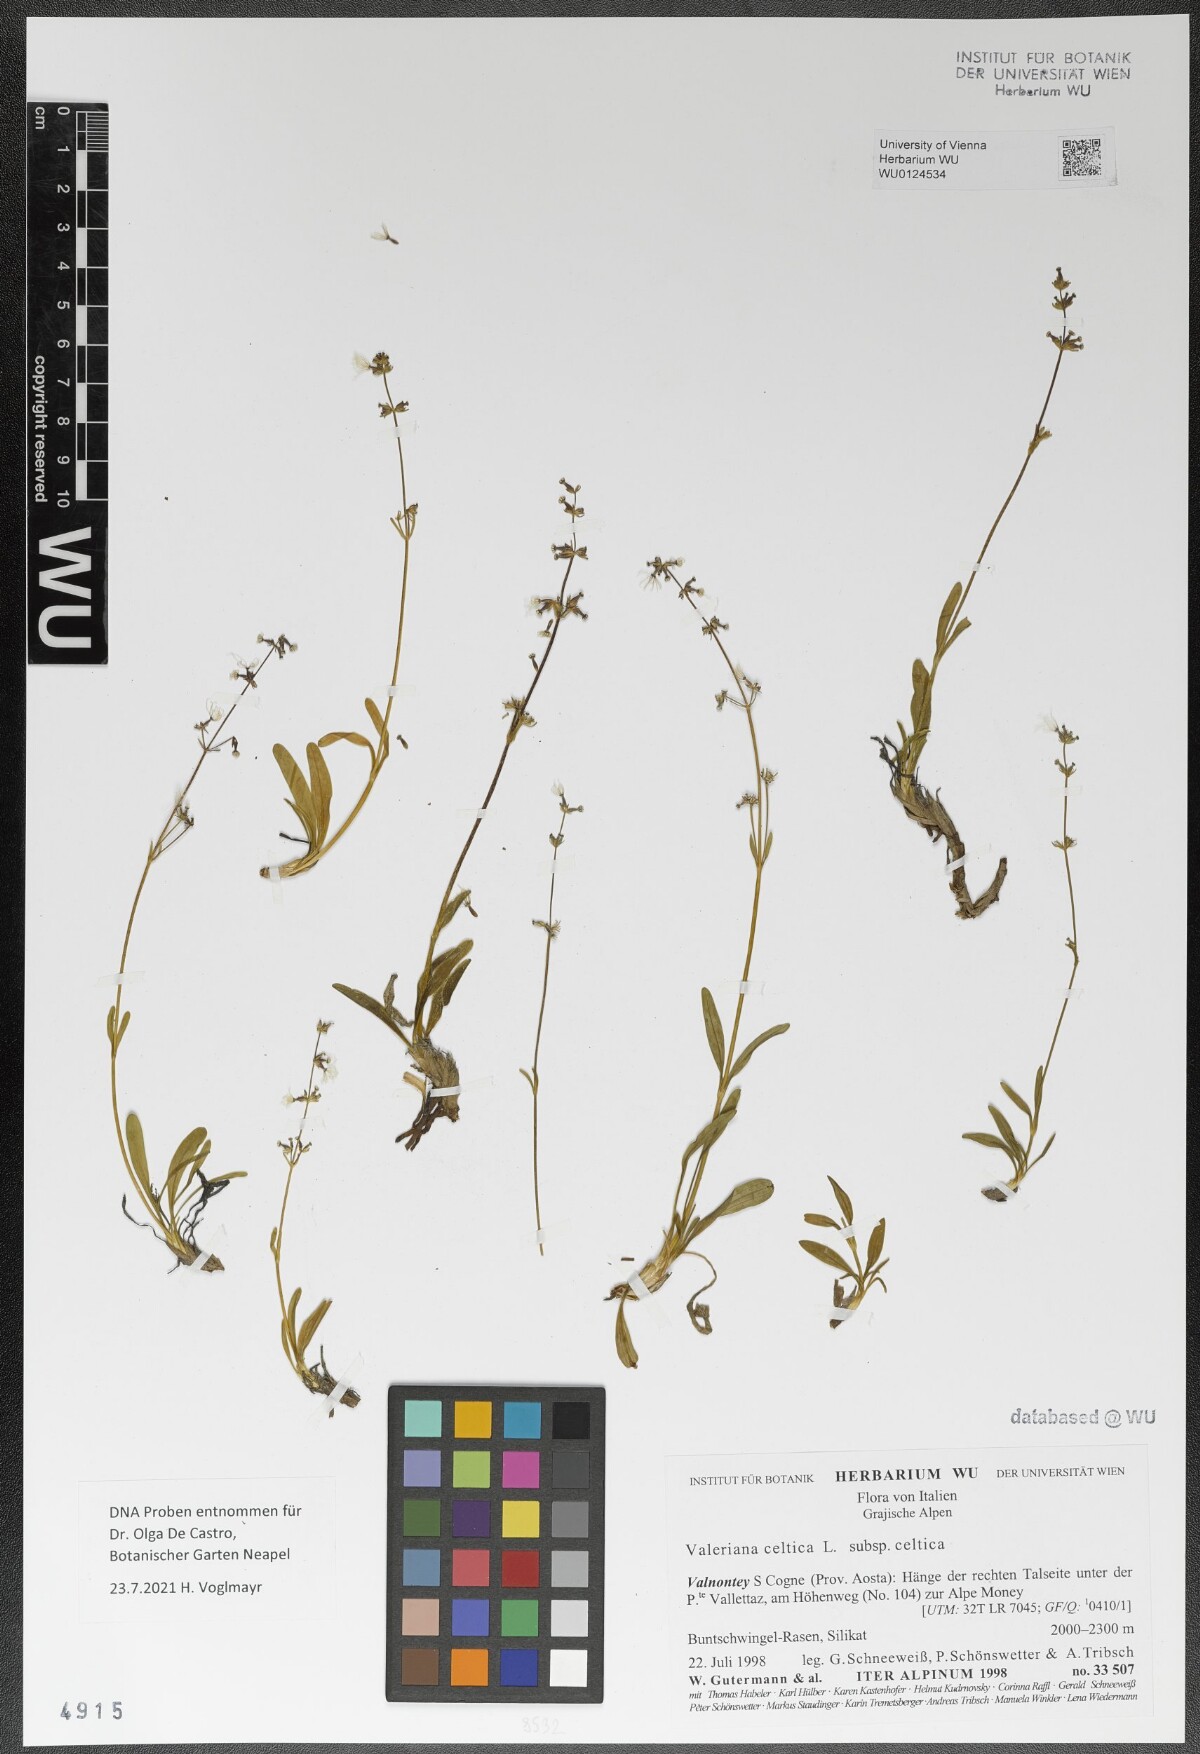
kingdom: Plantae
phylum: Tracheophyta
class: Magnoliopsida
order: Dipsacales
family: Caprifoliaceae
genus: Valeriana
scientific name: Valeriana celtica
